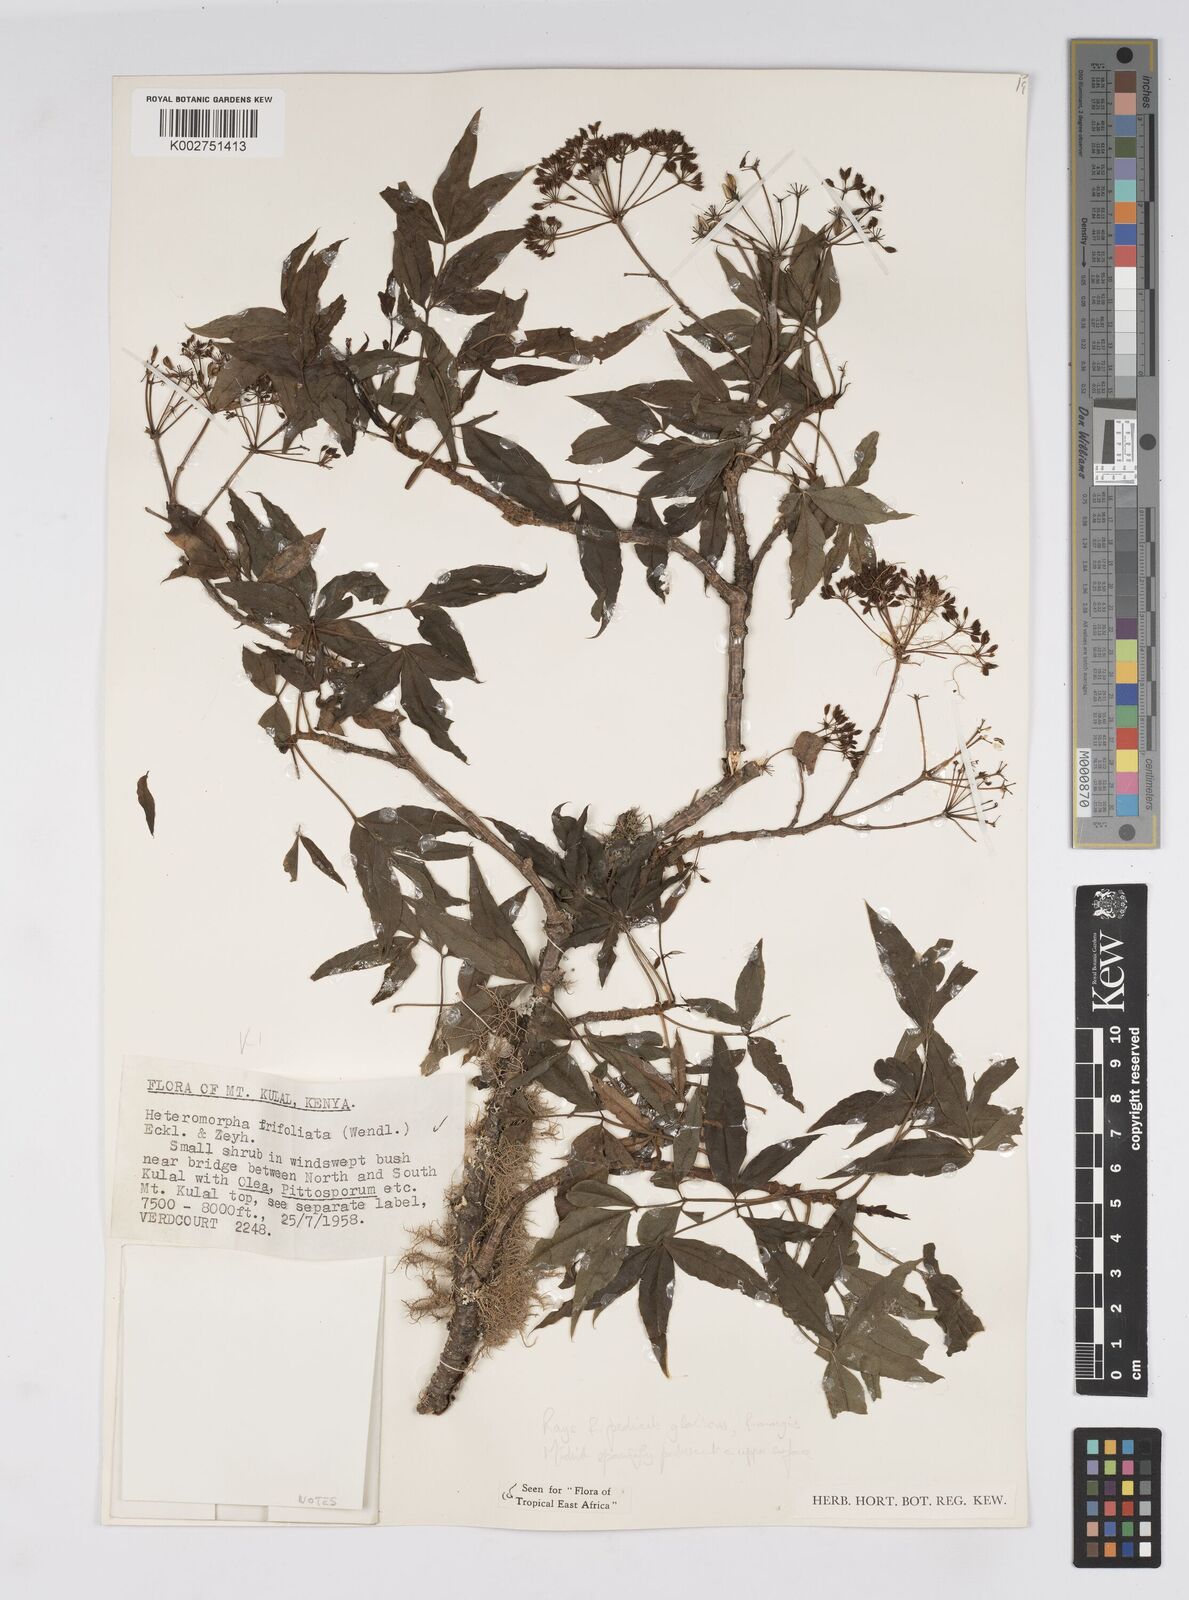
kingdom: Plantae
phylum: Tracheophyta
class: Magnoliopsida
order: Apiales
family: Apiaceae
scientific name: Apiaceae
